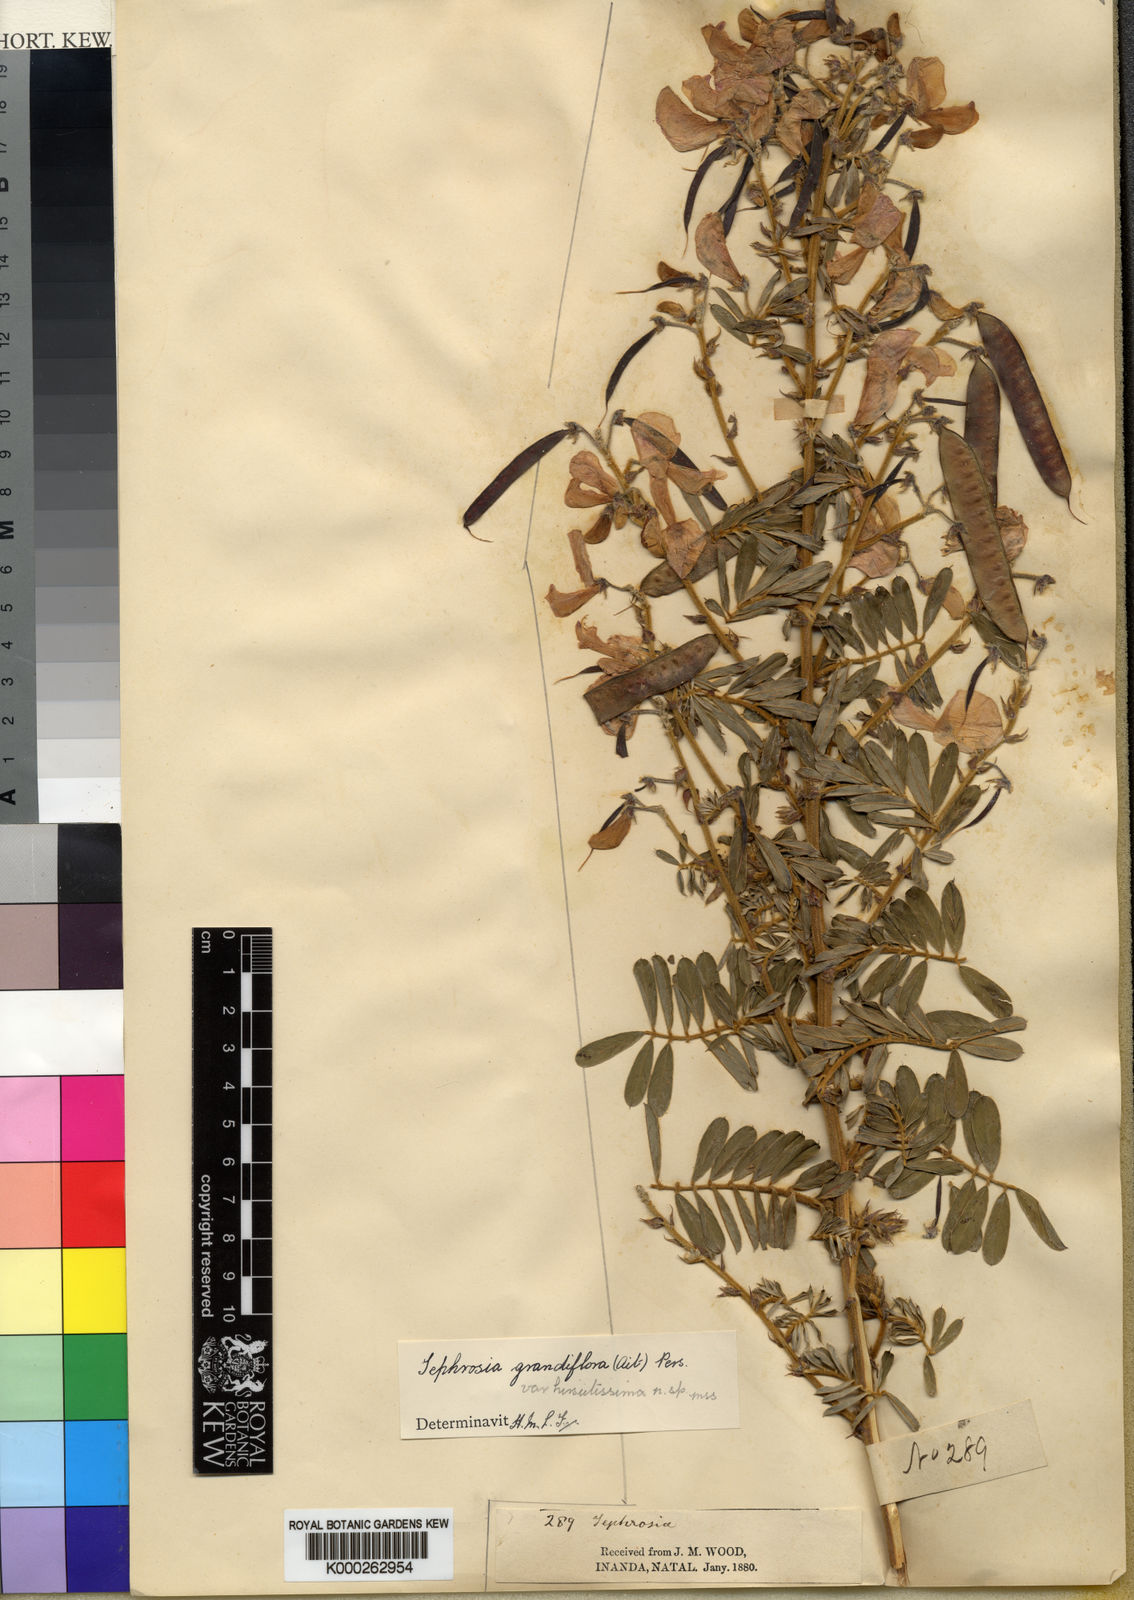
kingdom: Plantae
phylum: Tracheophyta
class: Magnoliopsida
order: Fabales
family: Fabaceae
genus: Tephrosia
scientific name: Tephrosia inandensis
